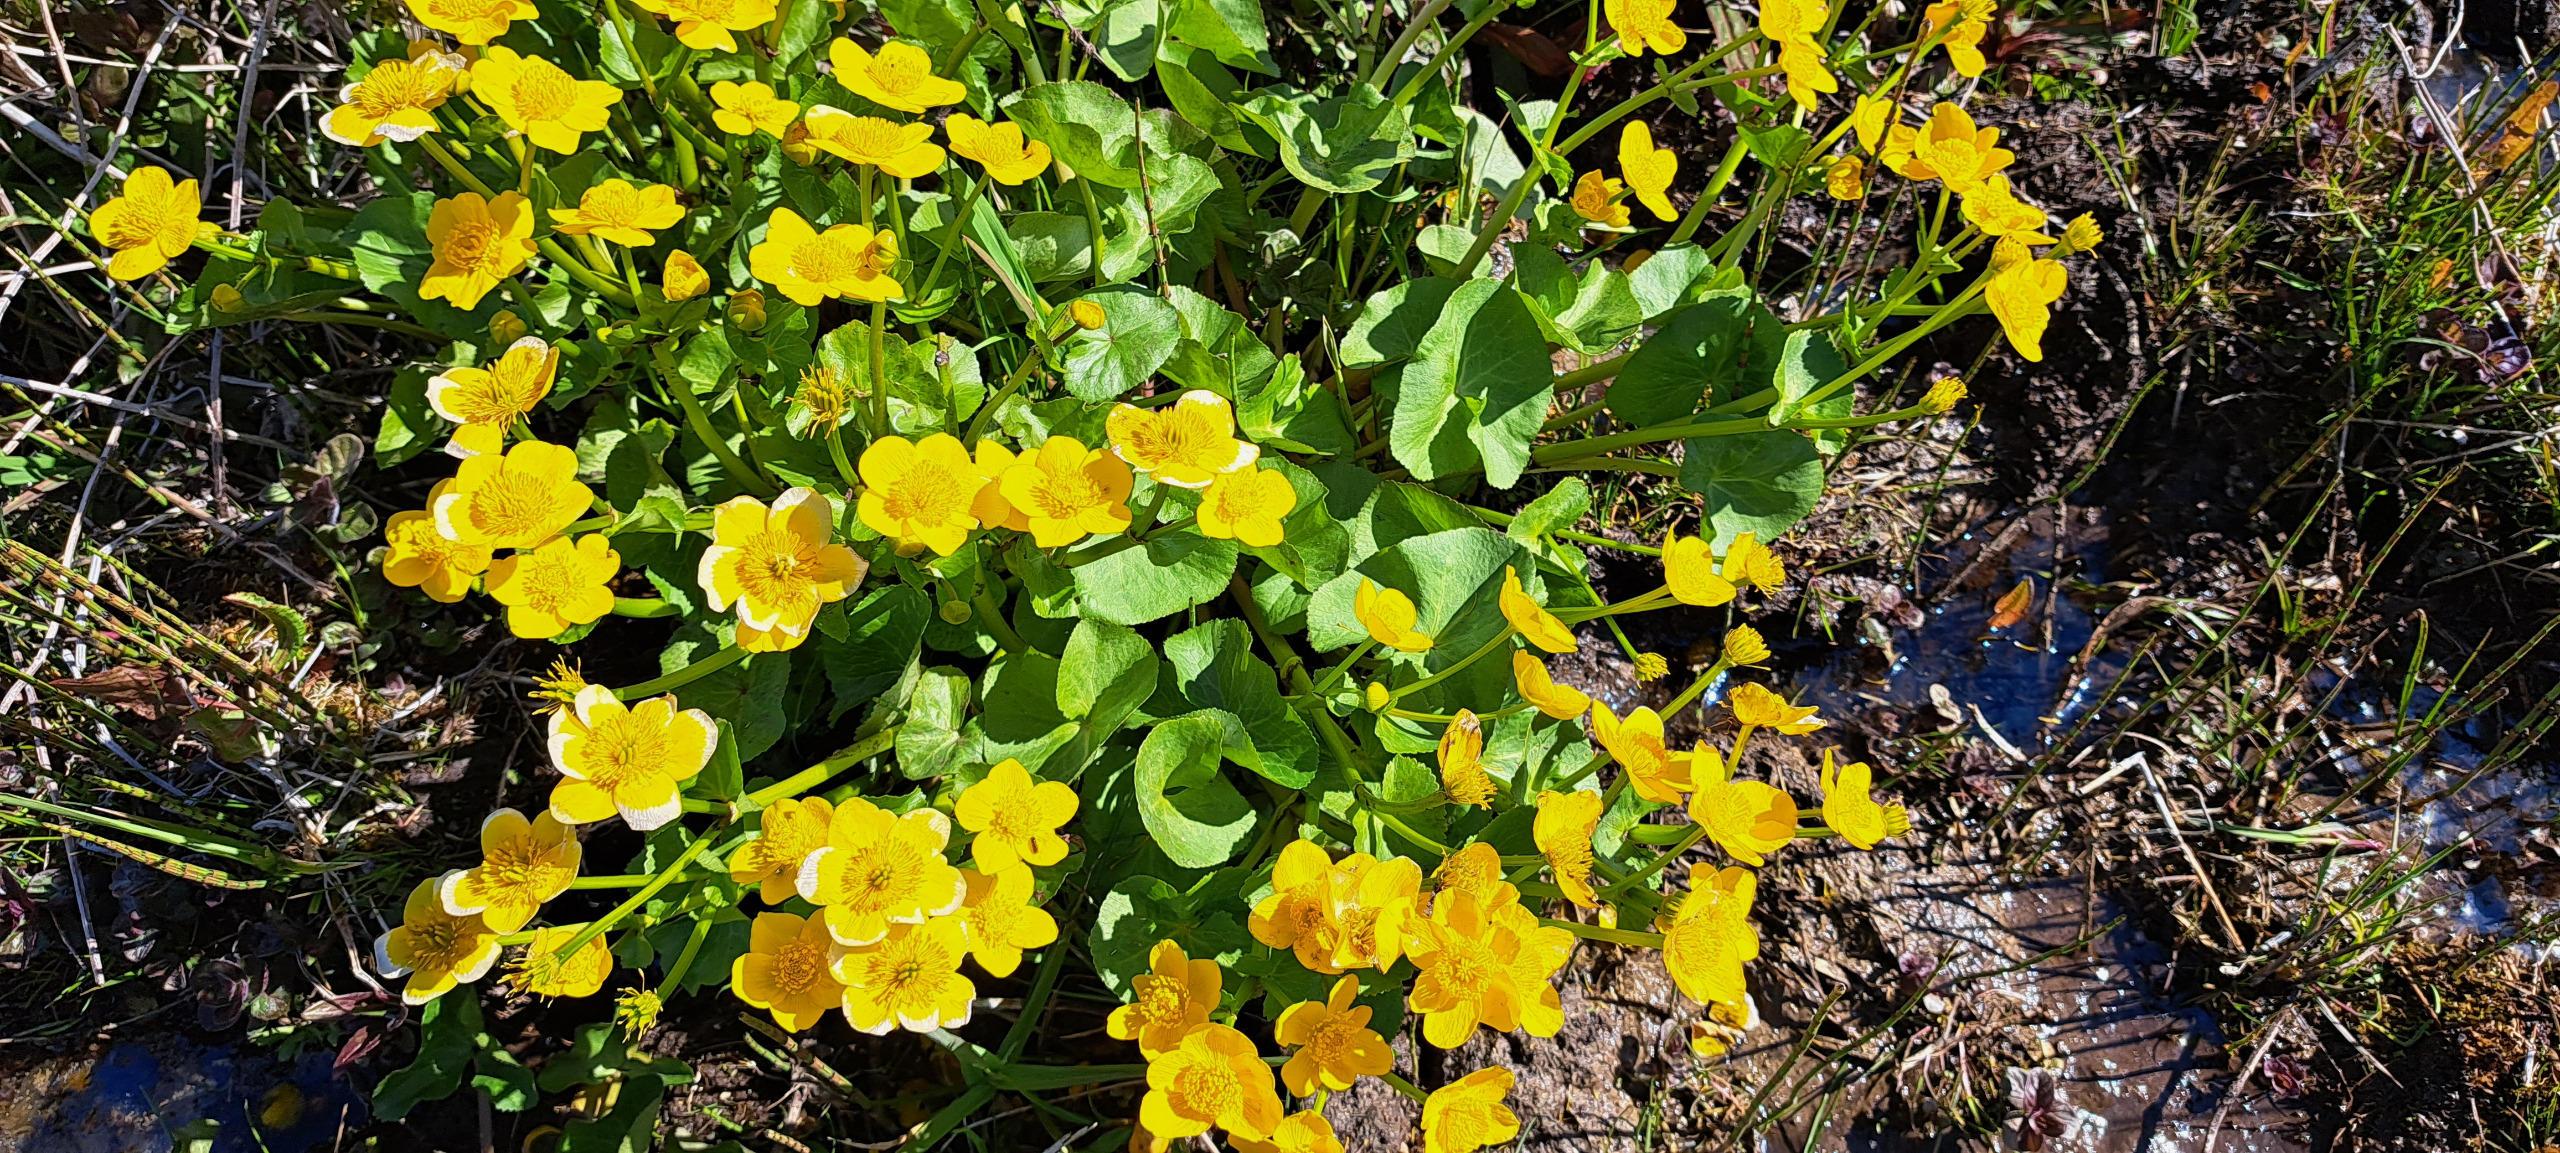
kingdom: Plantae
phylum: Tracheophyta
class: Magnoliopsida
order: Ranunculales
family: Ranunculaceae
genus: Caltha
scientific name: Caltha palustris
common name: Eng-kabbeleje
